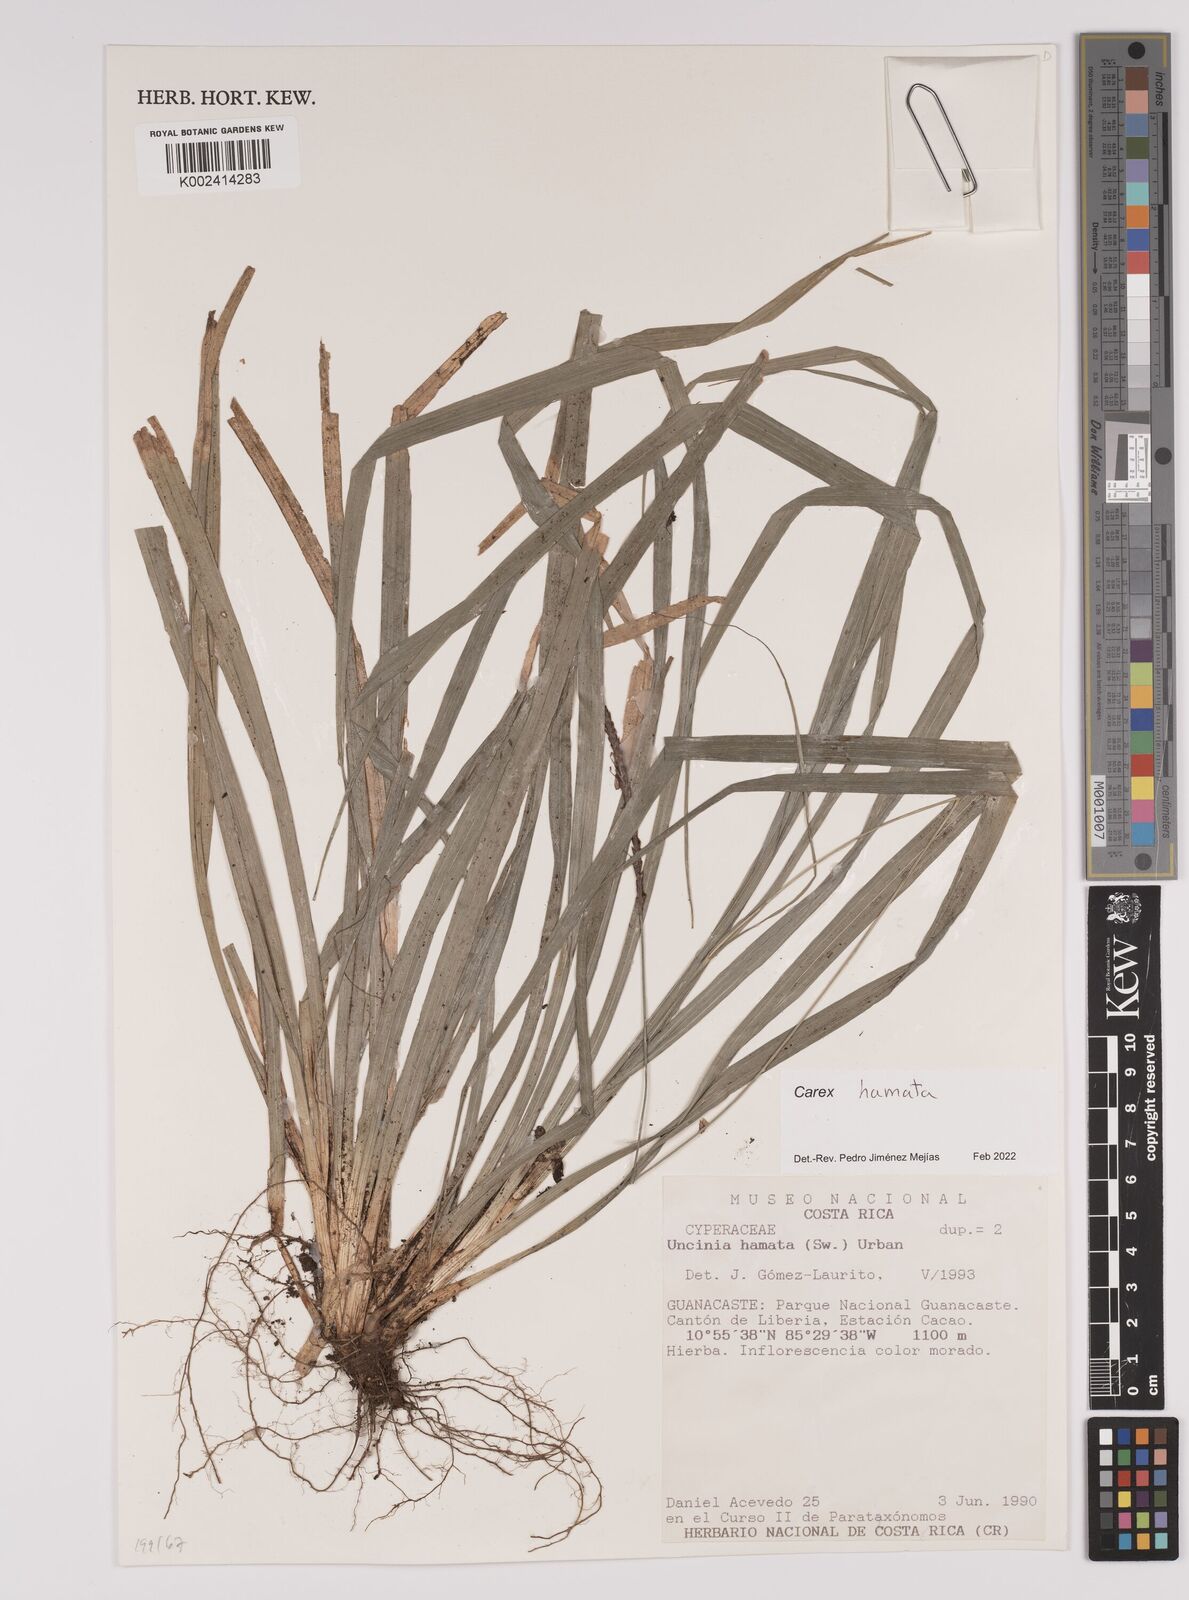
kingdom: Plantae
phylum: Tracheophyta
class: Liliopsida
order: Poales
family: Cyperaceae
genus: Carex
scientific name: Carex hamata
